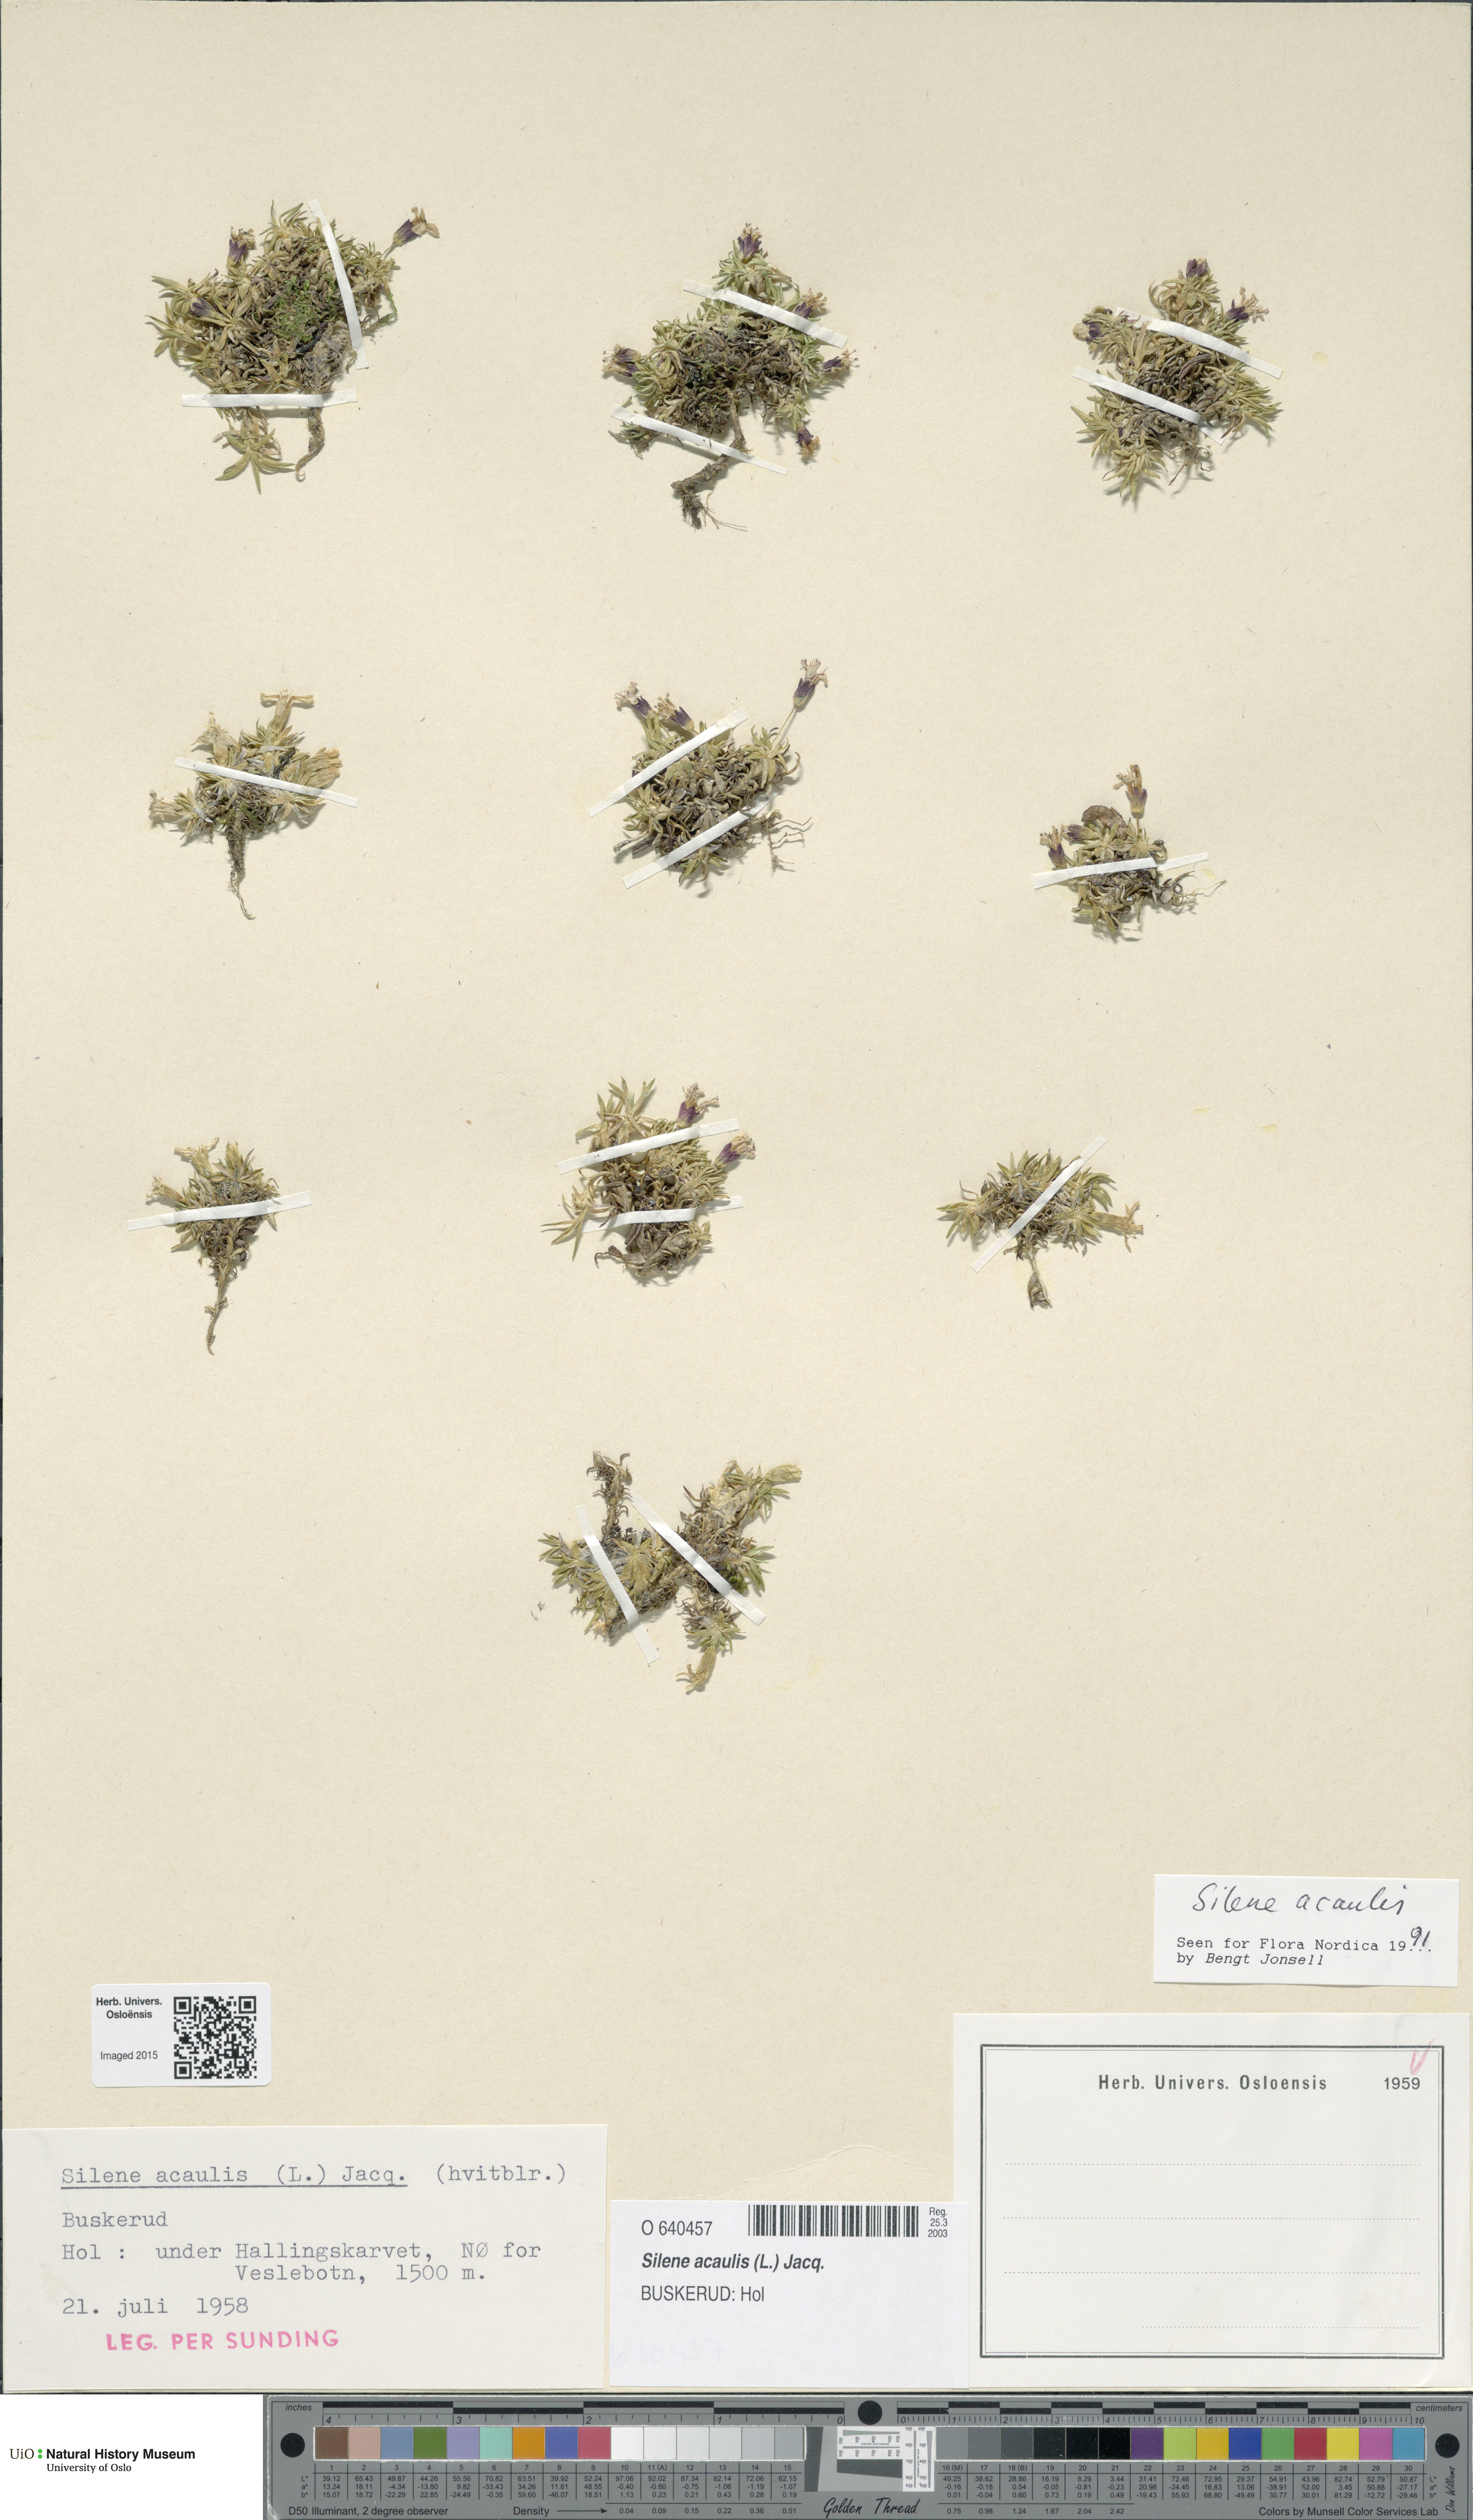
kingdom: Plantae
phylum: Tracheophyta
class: Magnoliopsida
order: Caryophyllales
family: Caryophyllaceae
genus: Silene
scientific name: Silene acaulis
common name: Moss campion
